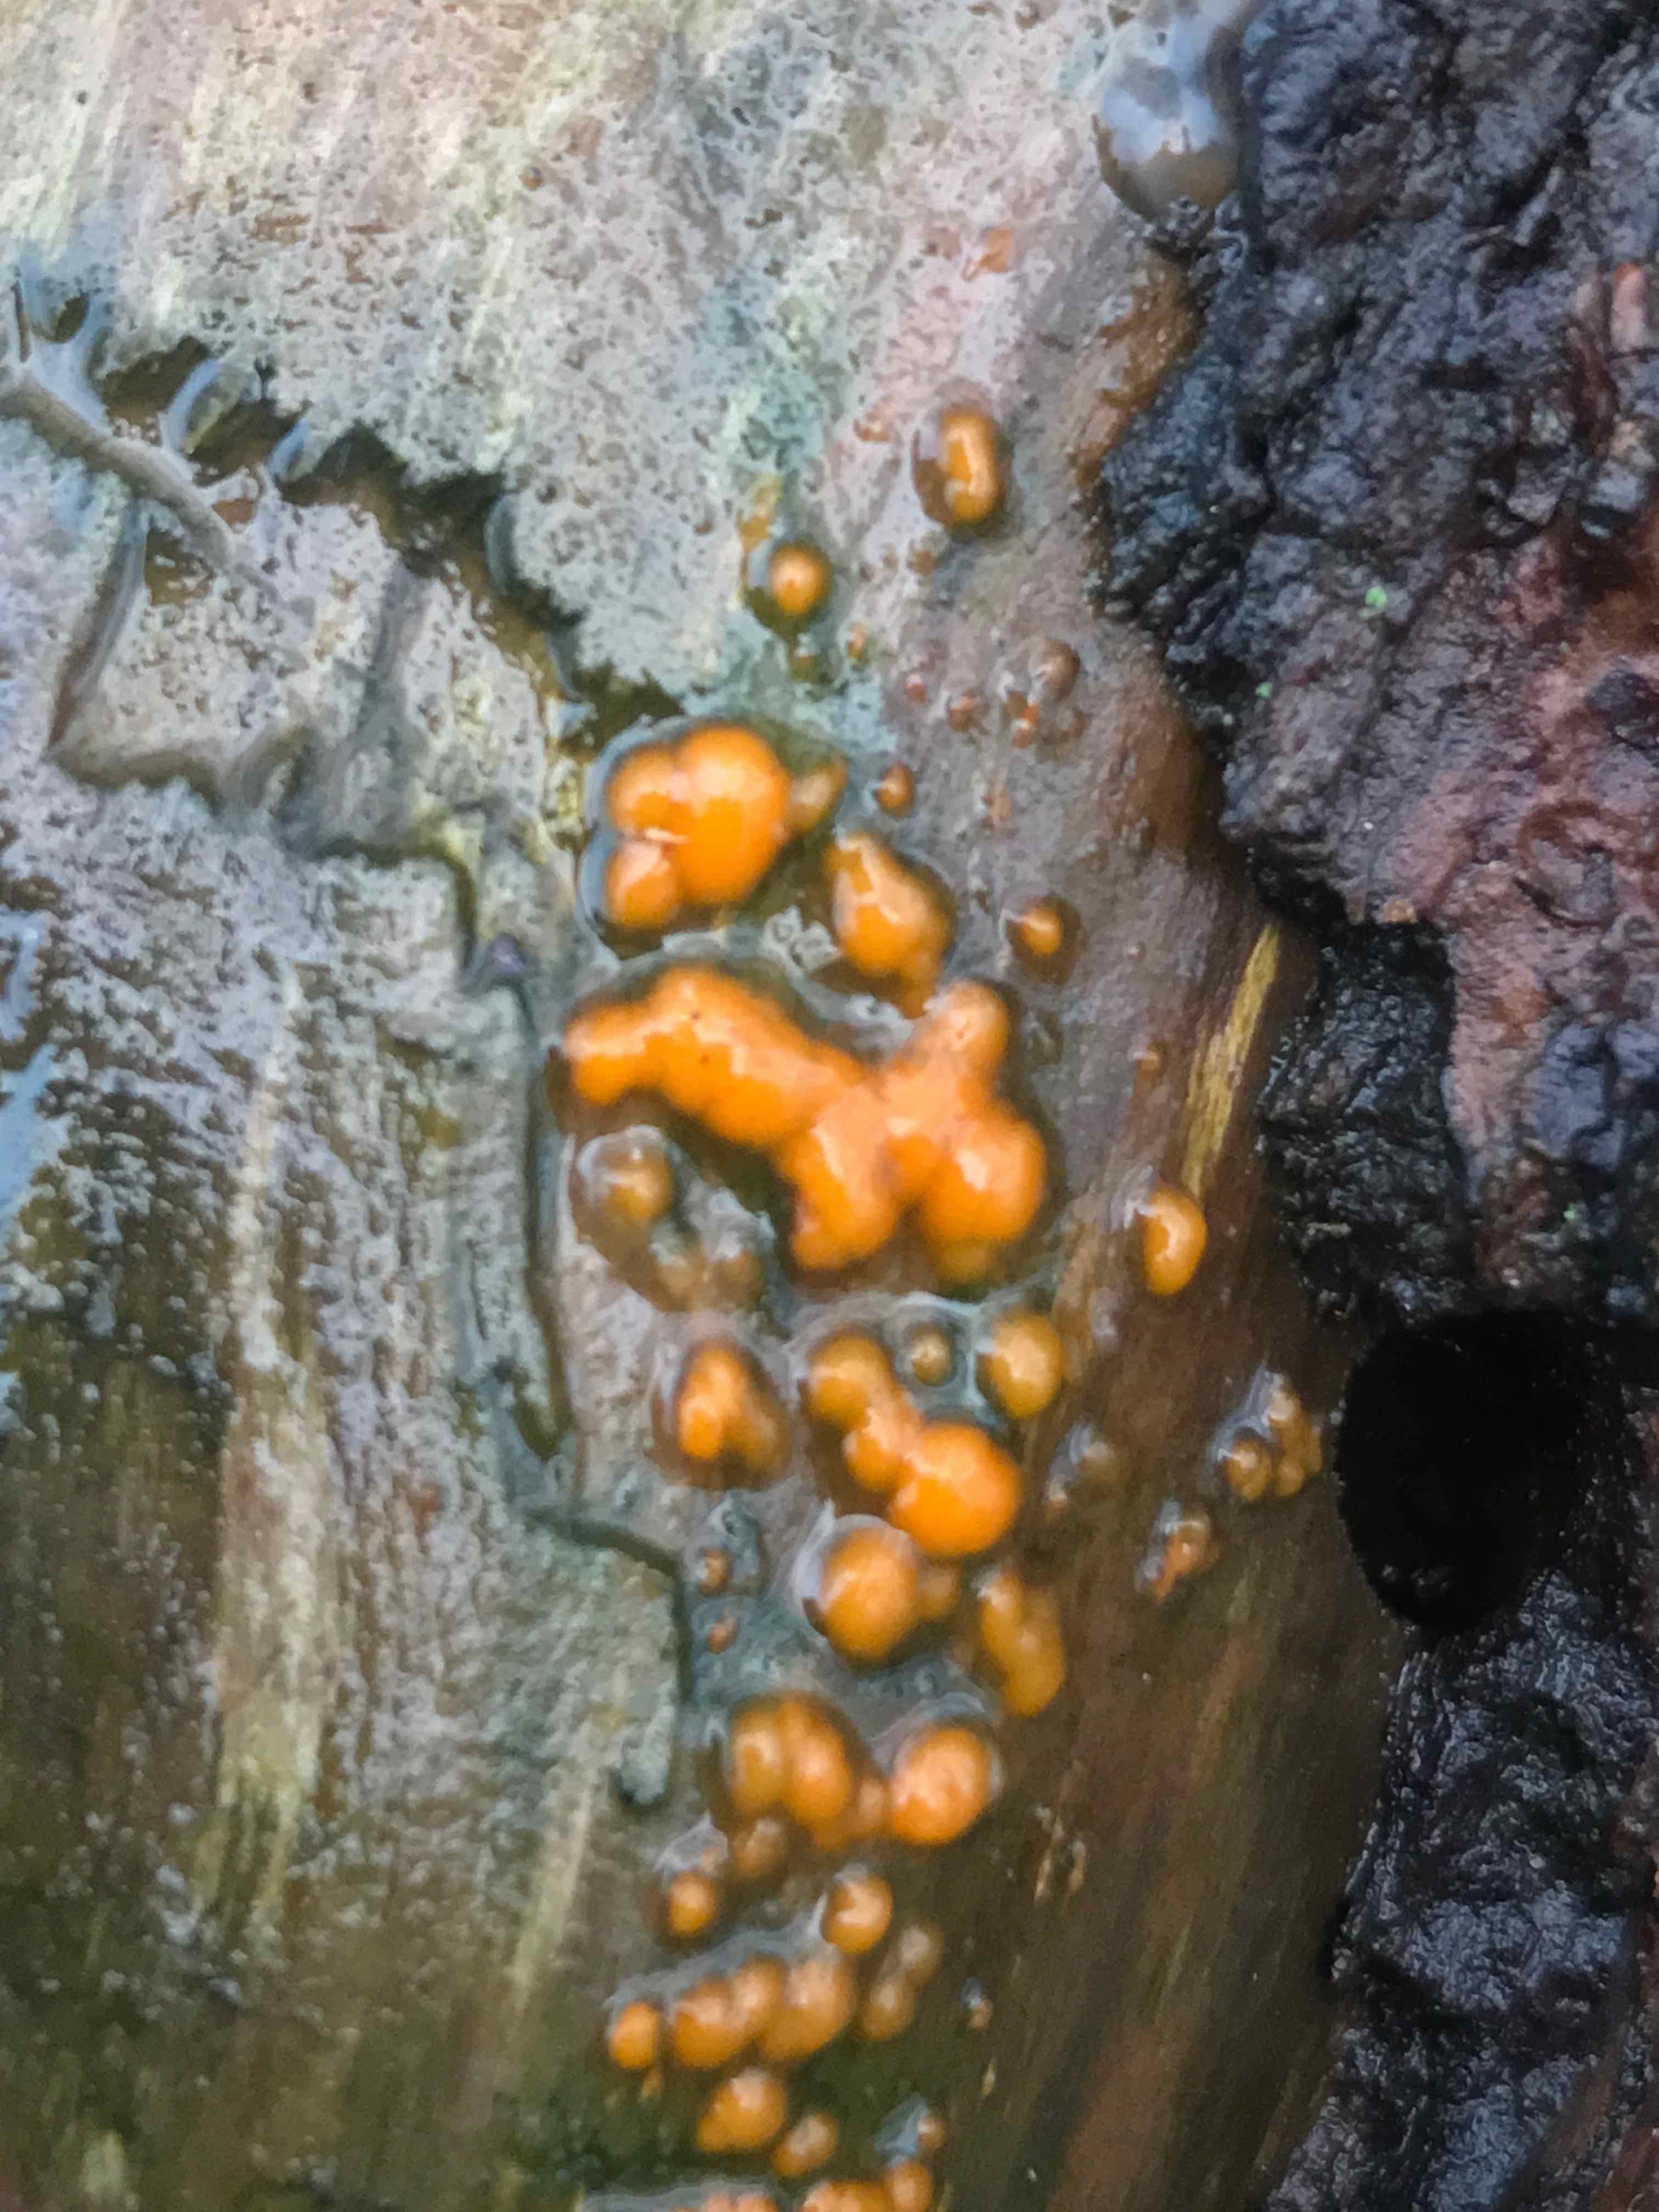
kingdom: Fungi
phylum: Basidiomycota
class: Dacrymycetes
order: Dacrymycetales
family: Dacrymycetaceae
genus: Dacrymyces
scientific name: Dacrymyces stillatus
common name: almindelig tåresvamp
